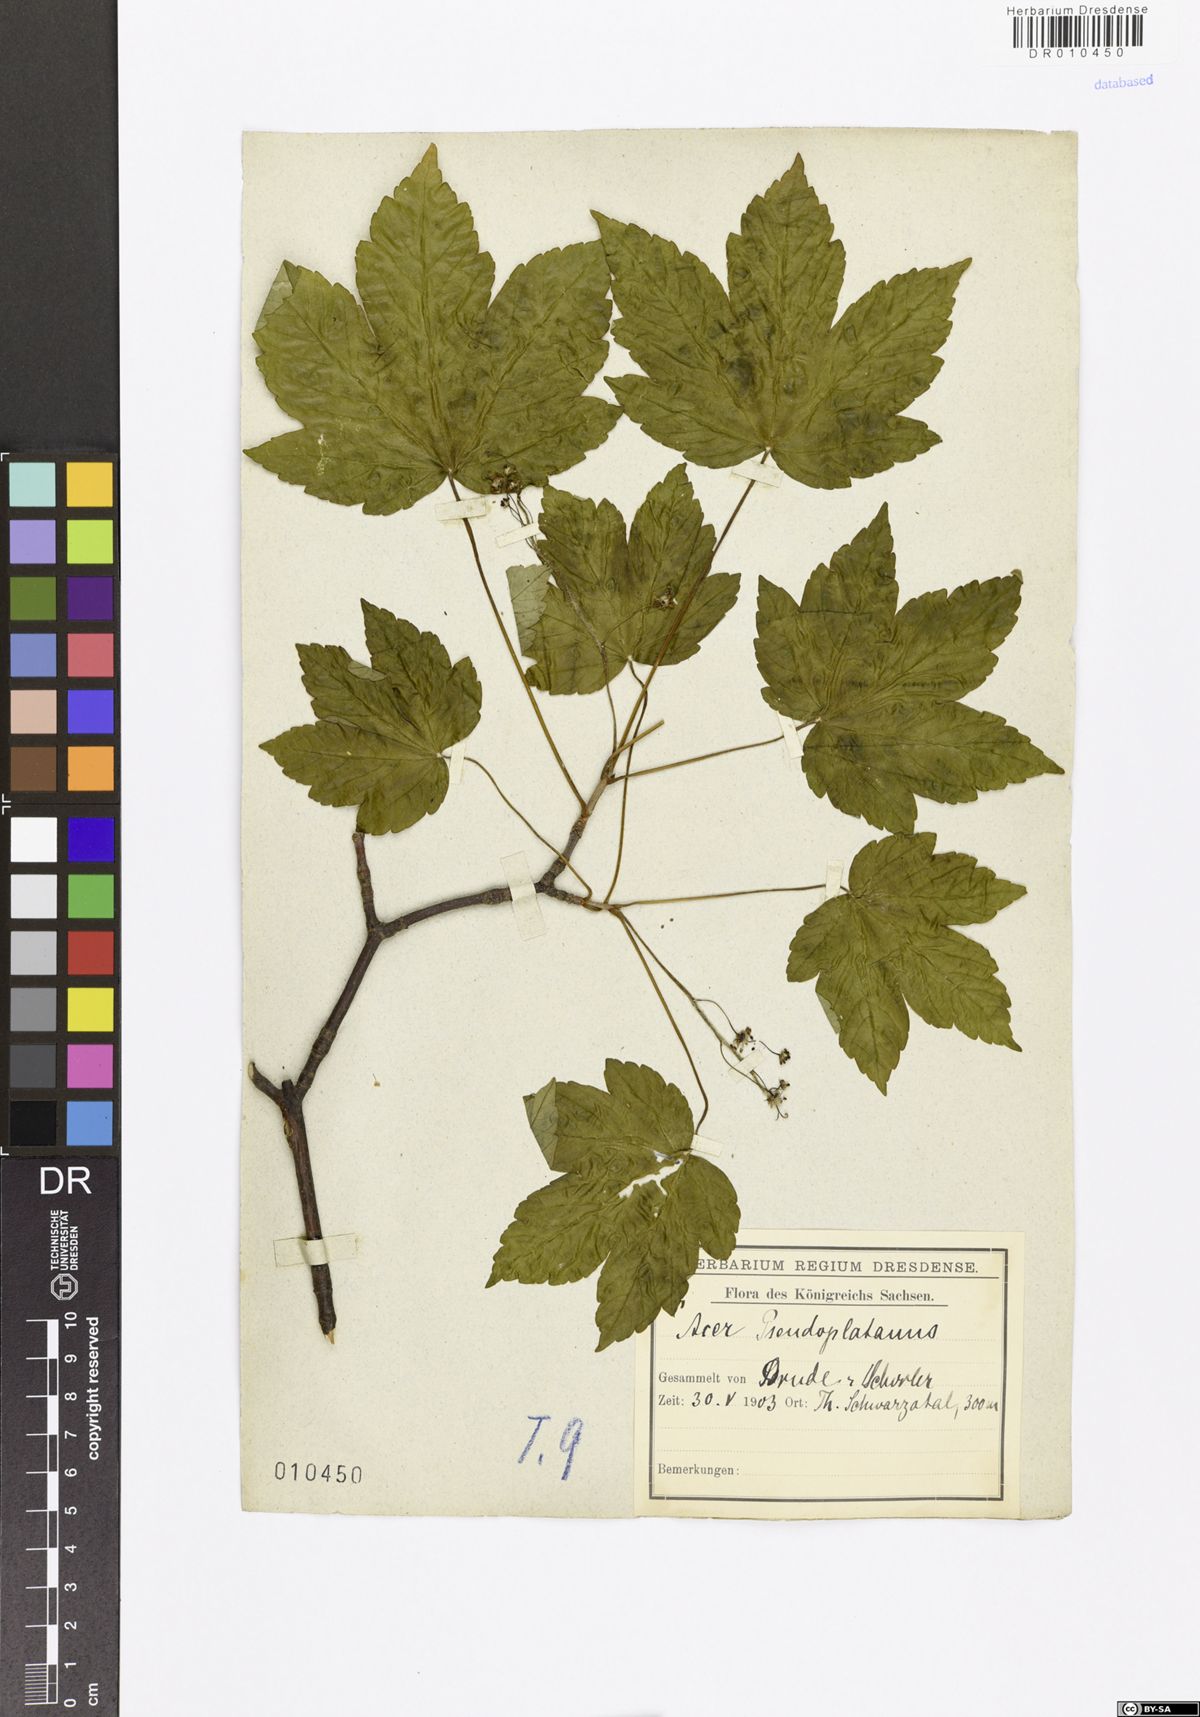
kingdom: Plantae
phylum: Tracheophyta
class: Magnoliopsida
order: Sapindales
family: Sapindaceae
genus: Acer
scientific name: Acer pseudoplatanus
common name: Sycamore
